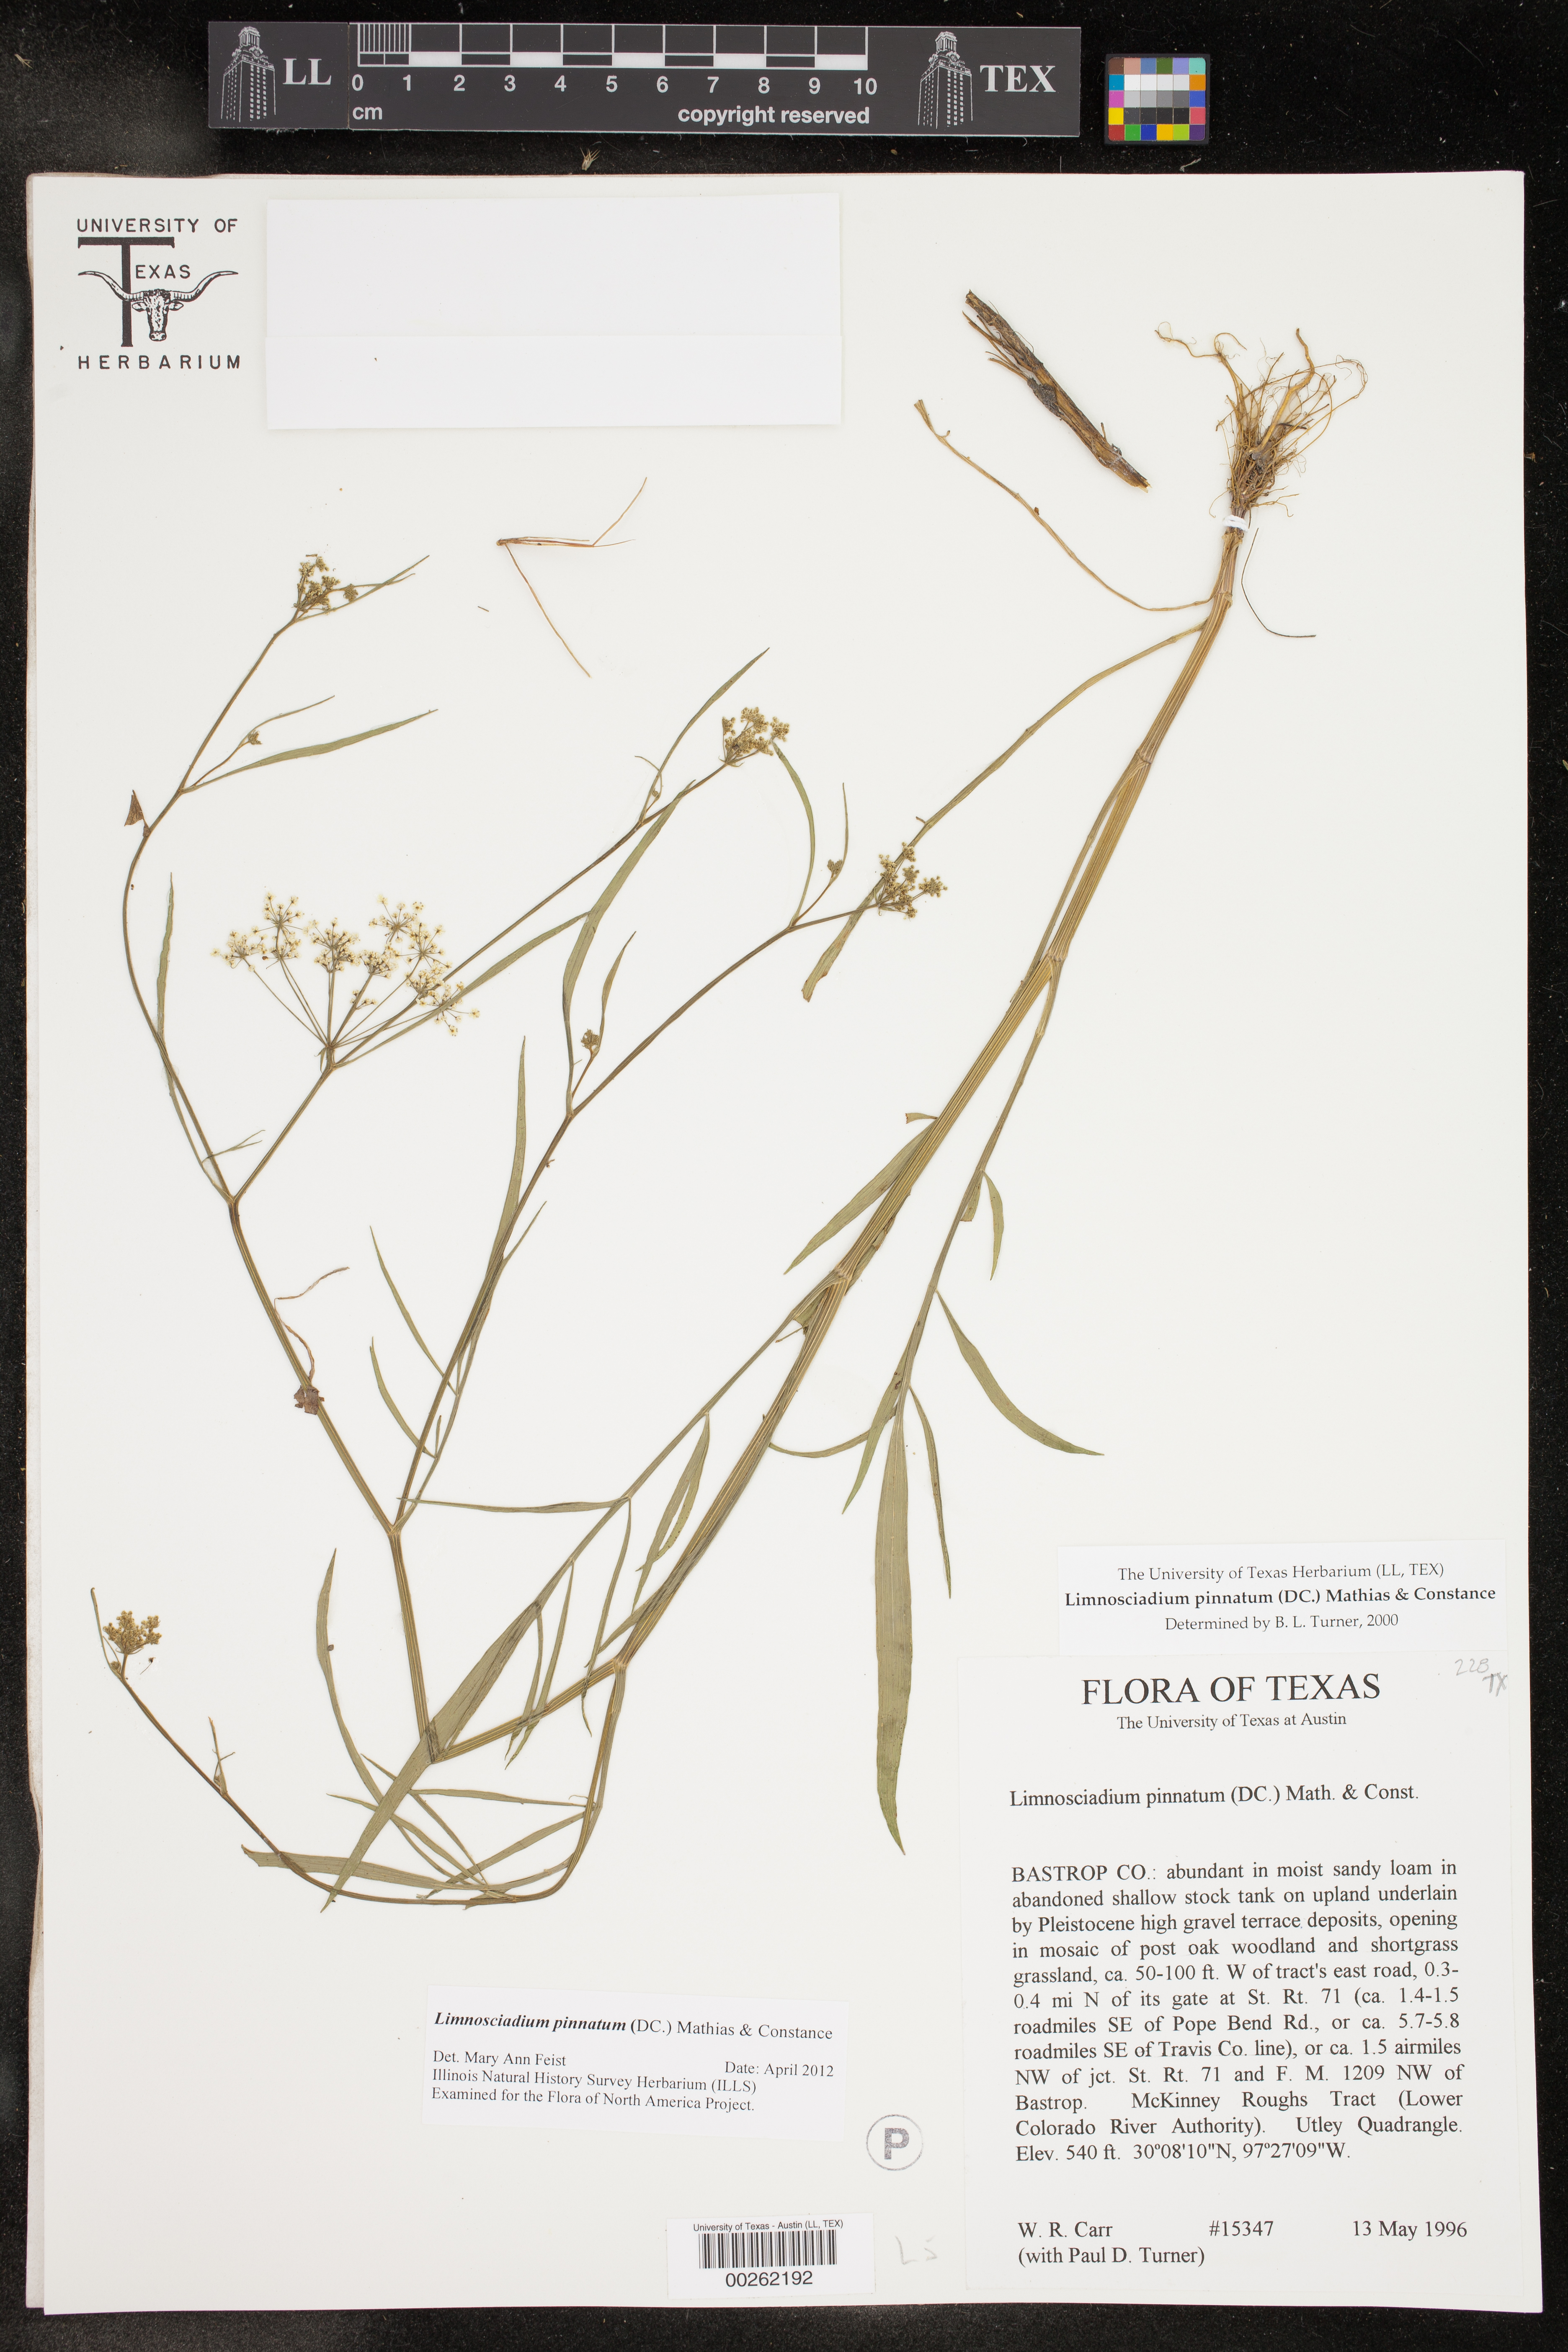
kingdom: Plantae
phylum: Tracheophyta
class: Magnoliopsida
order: Apiales
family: Apiaceae
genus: Limnosciadium
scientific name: Limnosciadium pinnatum
